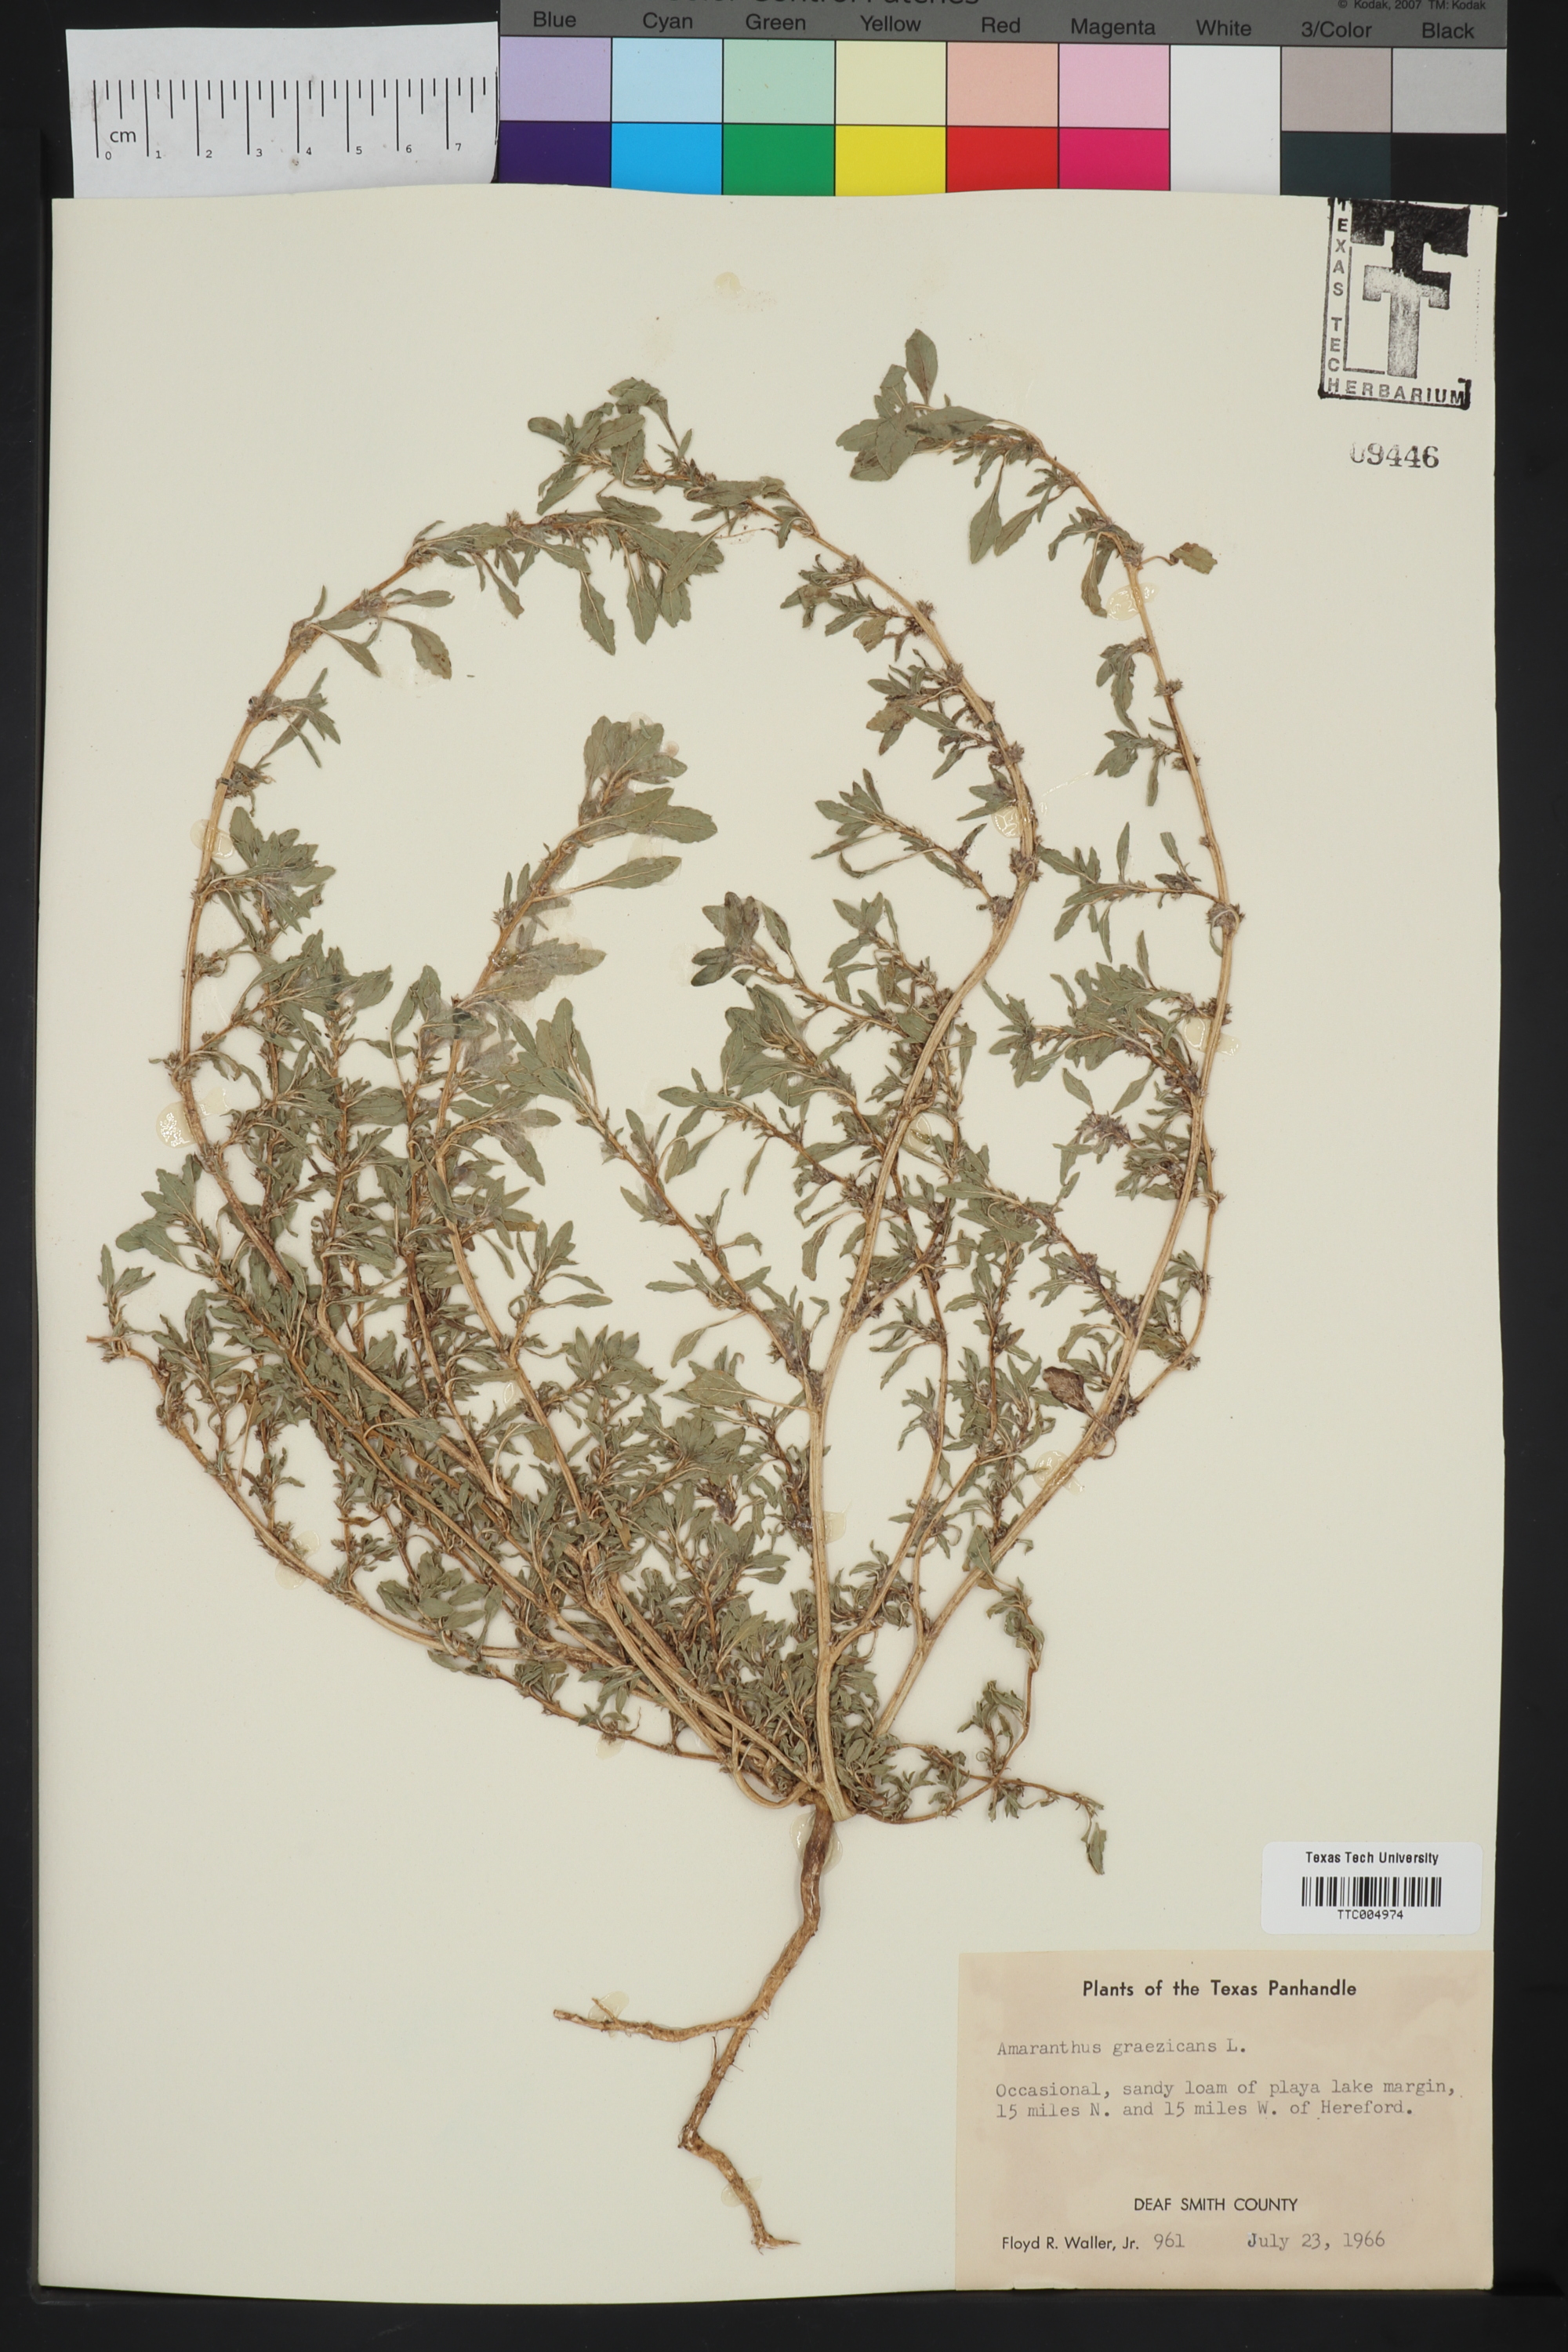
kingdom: Plantae
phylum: Tracheophyta
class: Magnoliopsida
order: Caryophyllales
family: Amaranthaceae
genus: Amaranthus
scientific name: Amaranthus graecizans
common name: Mediterranean amaranth
